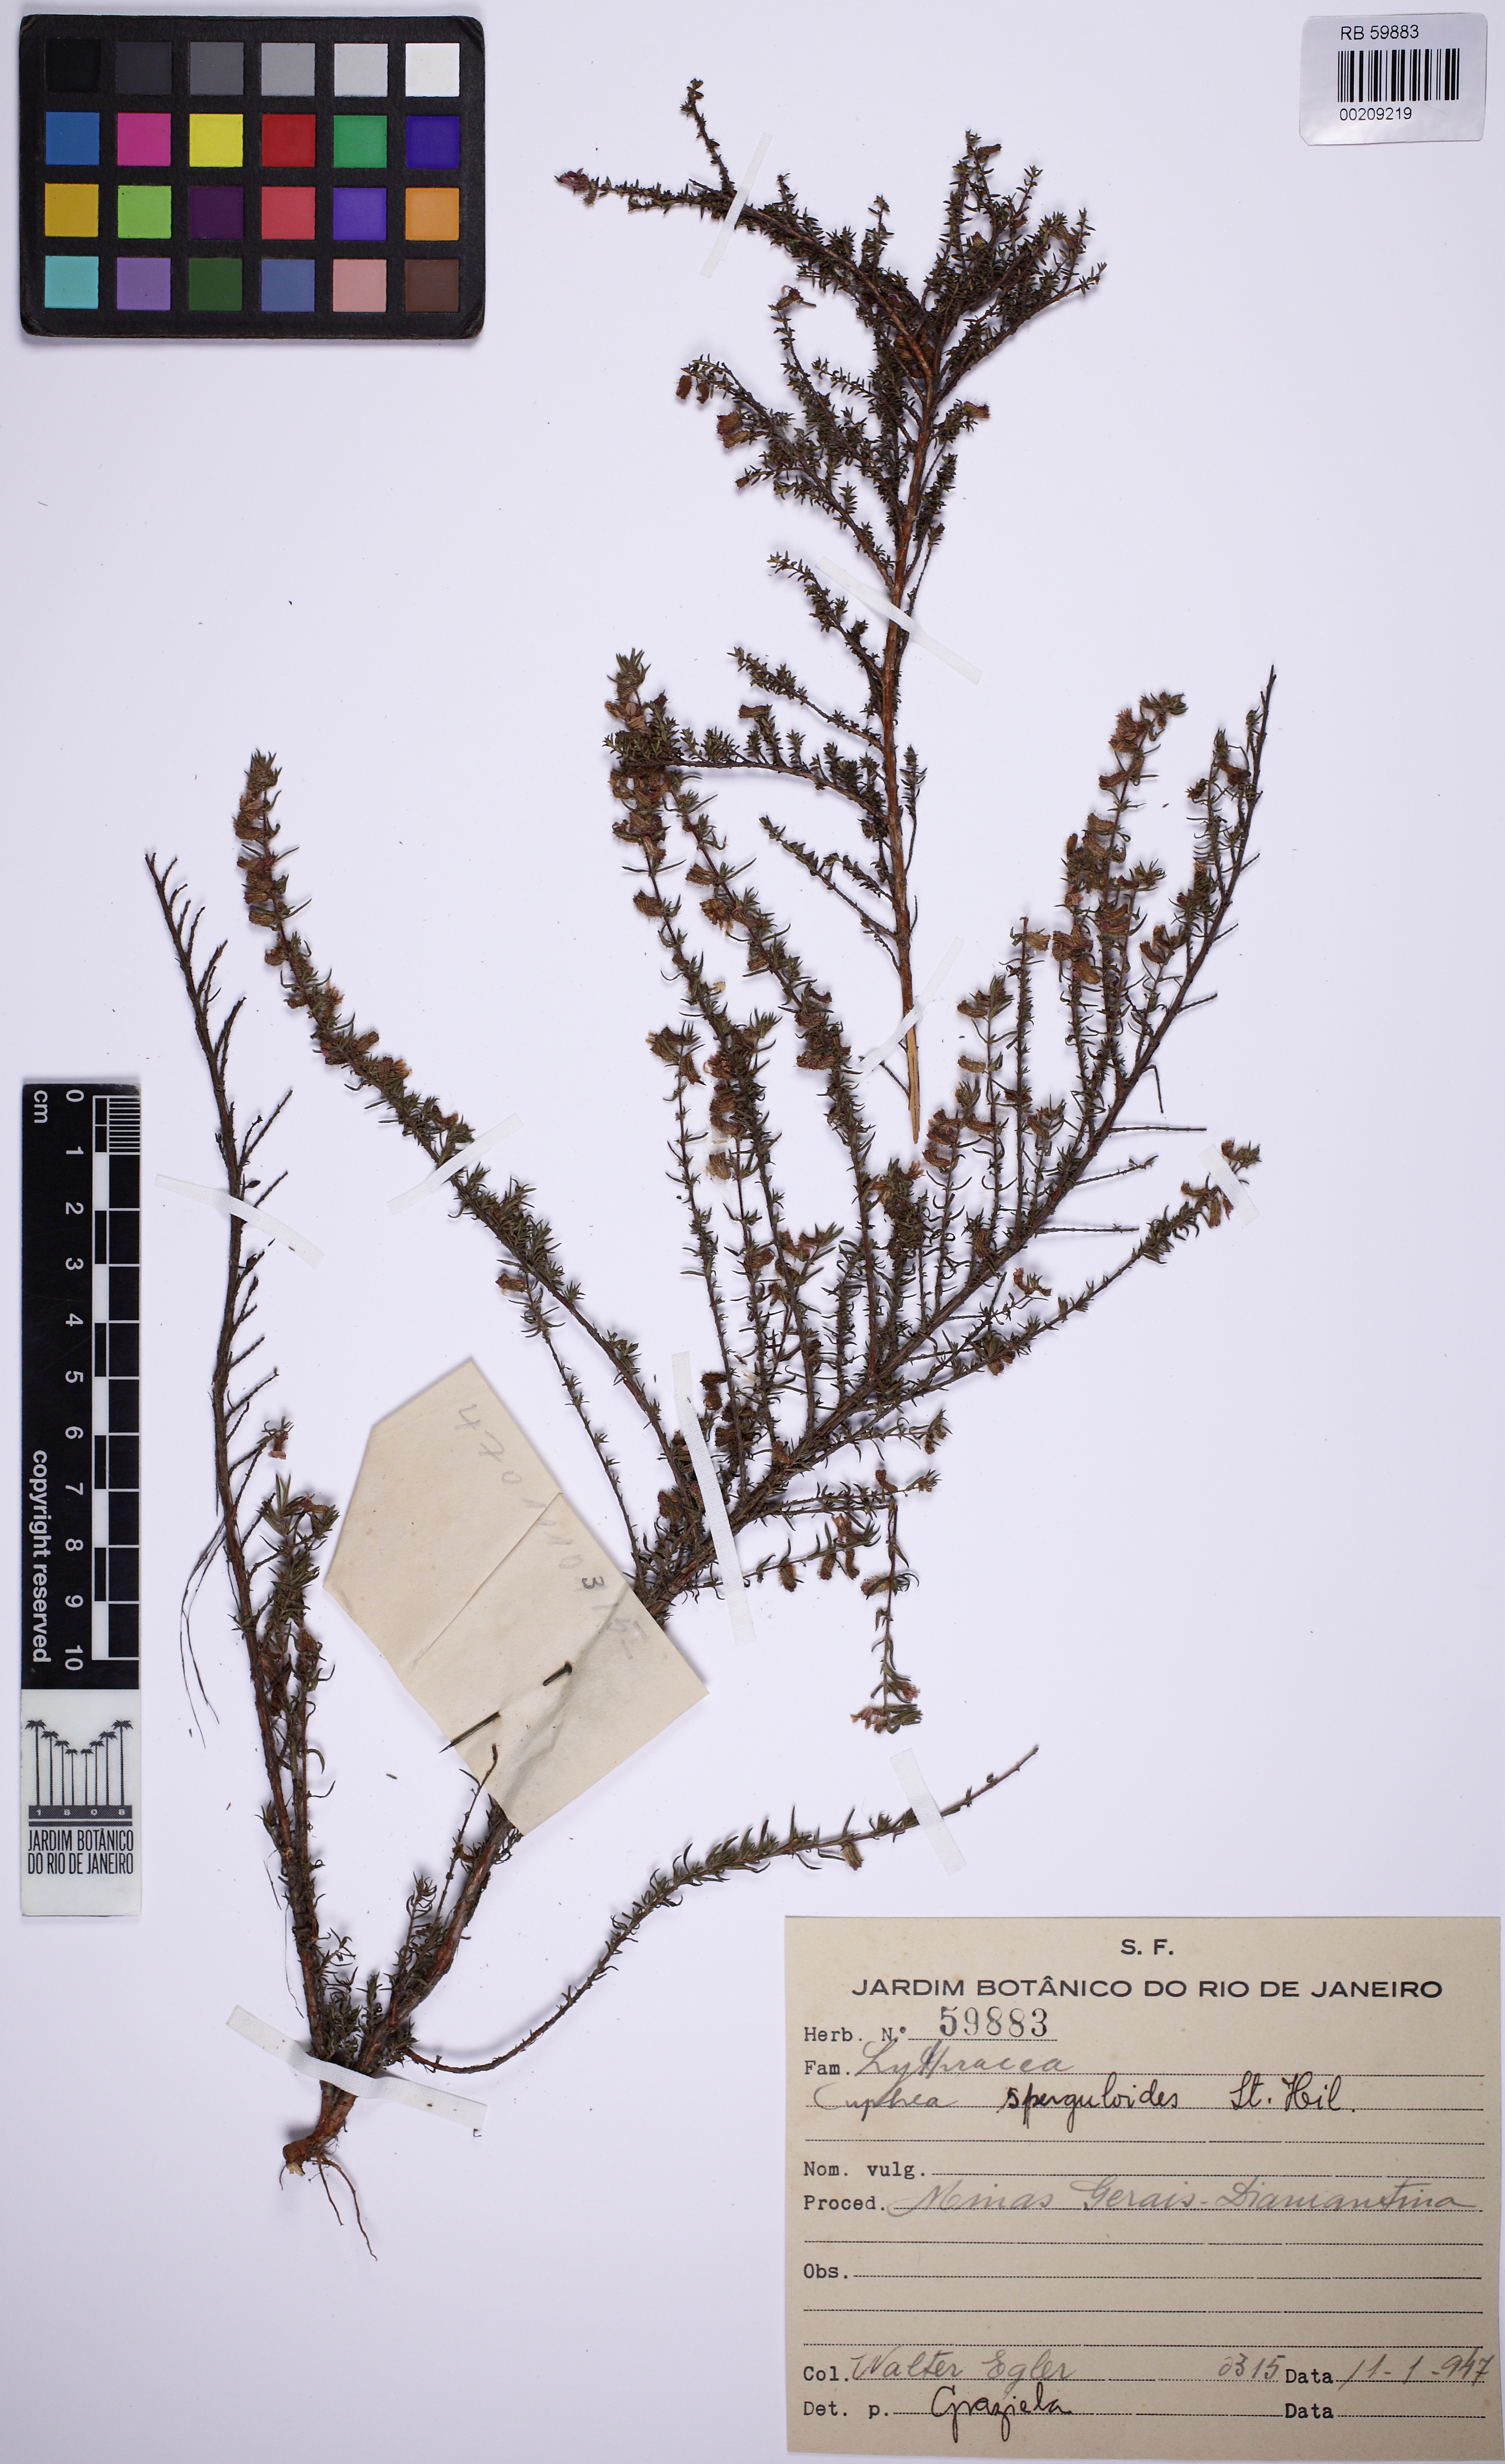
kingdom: Plantae
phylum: Tracheophyta
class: Magnoliopsida
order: Myrtales
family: Lythraceae
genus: Cuphea
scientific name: Cuphea sperguloides
